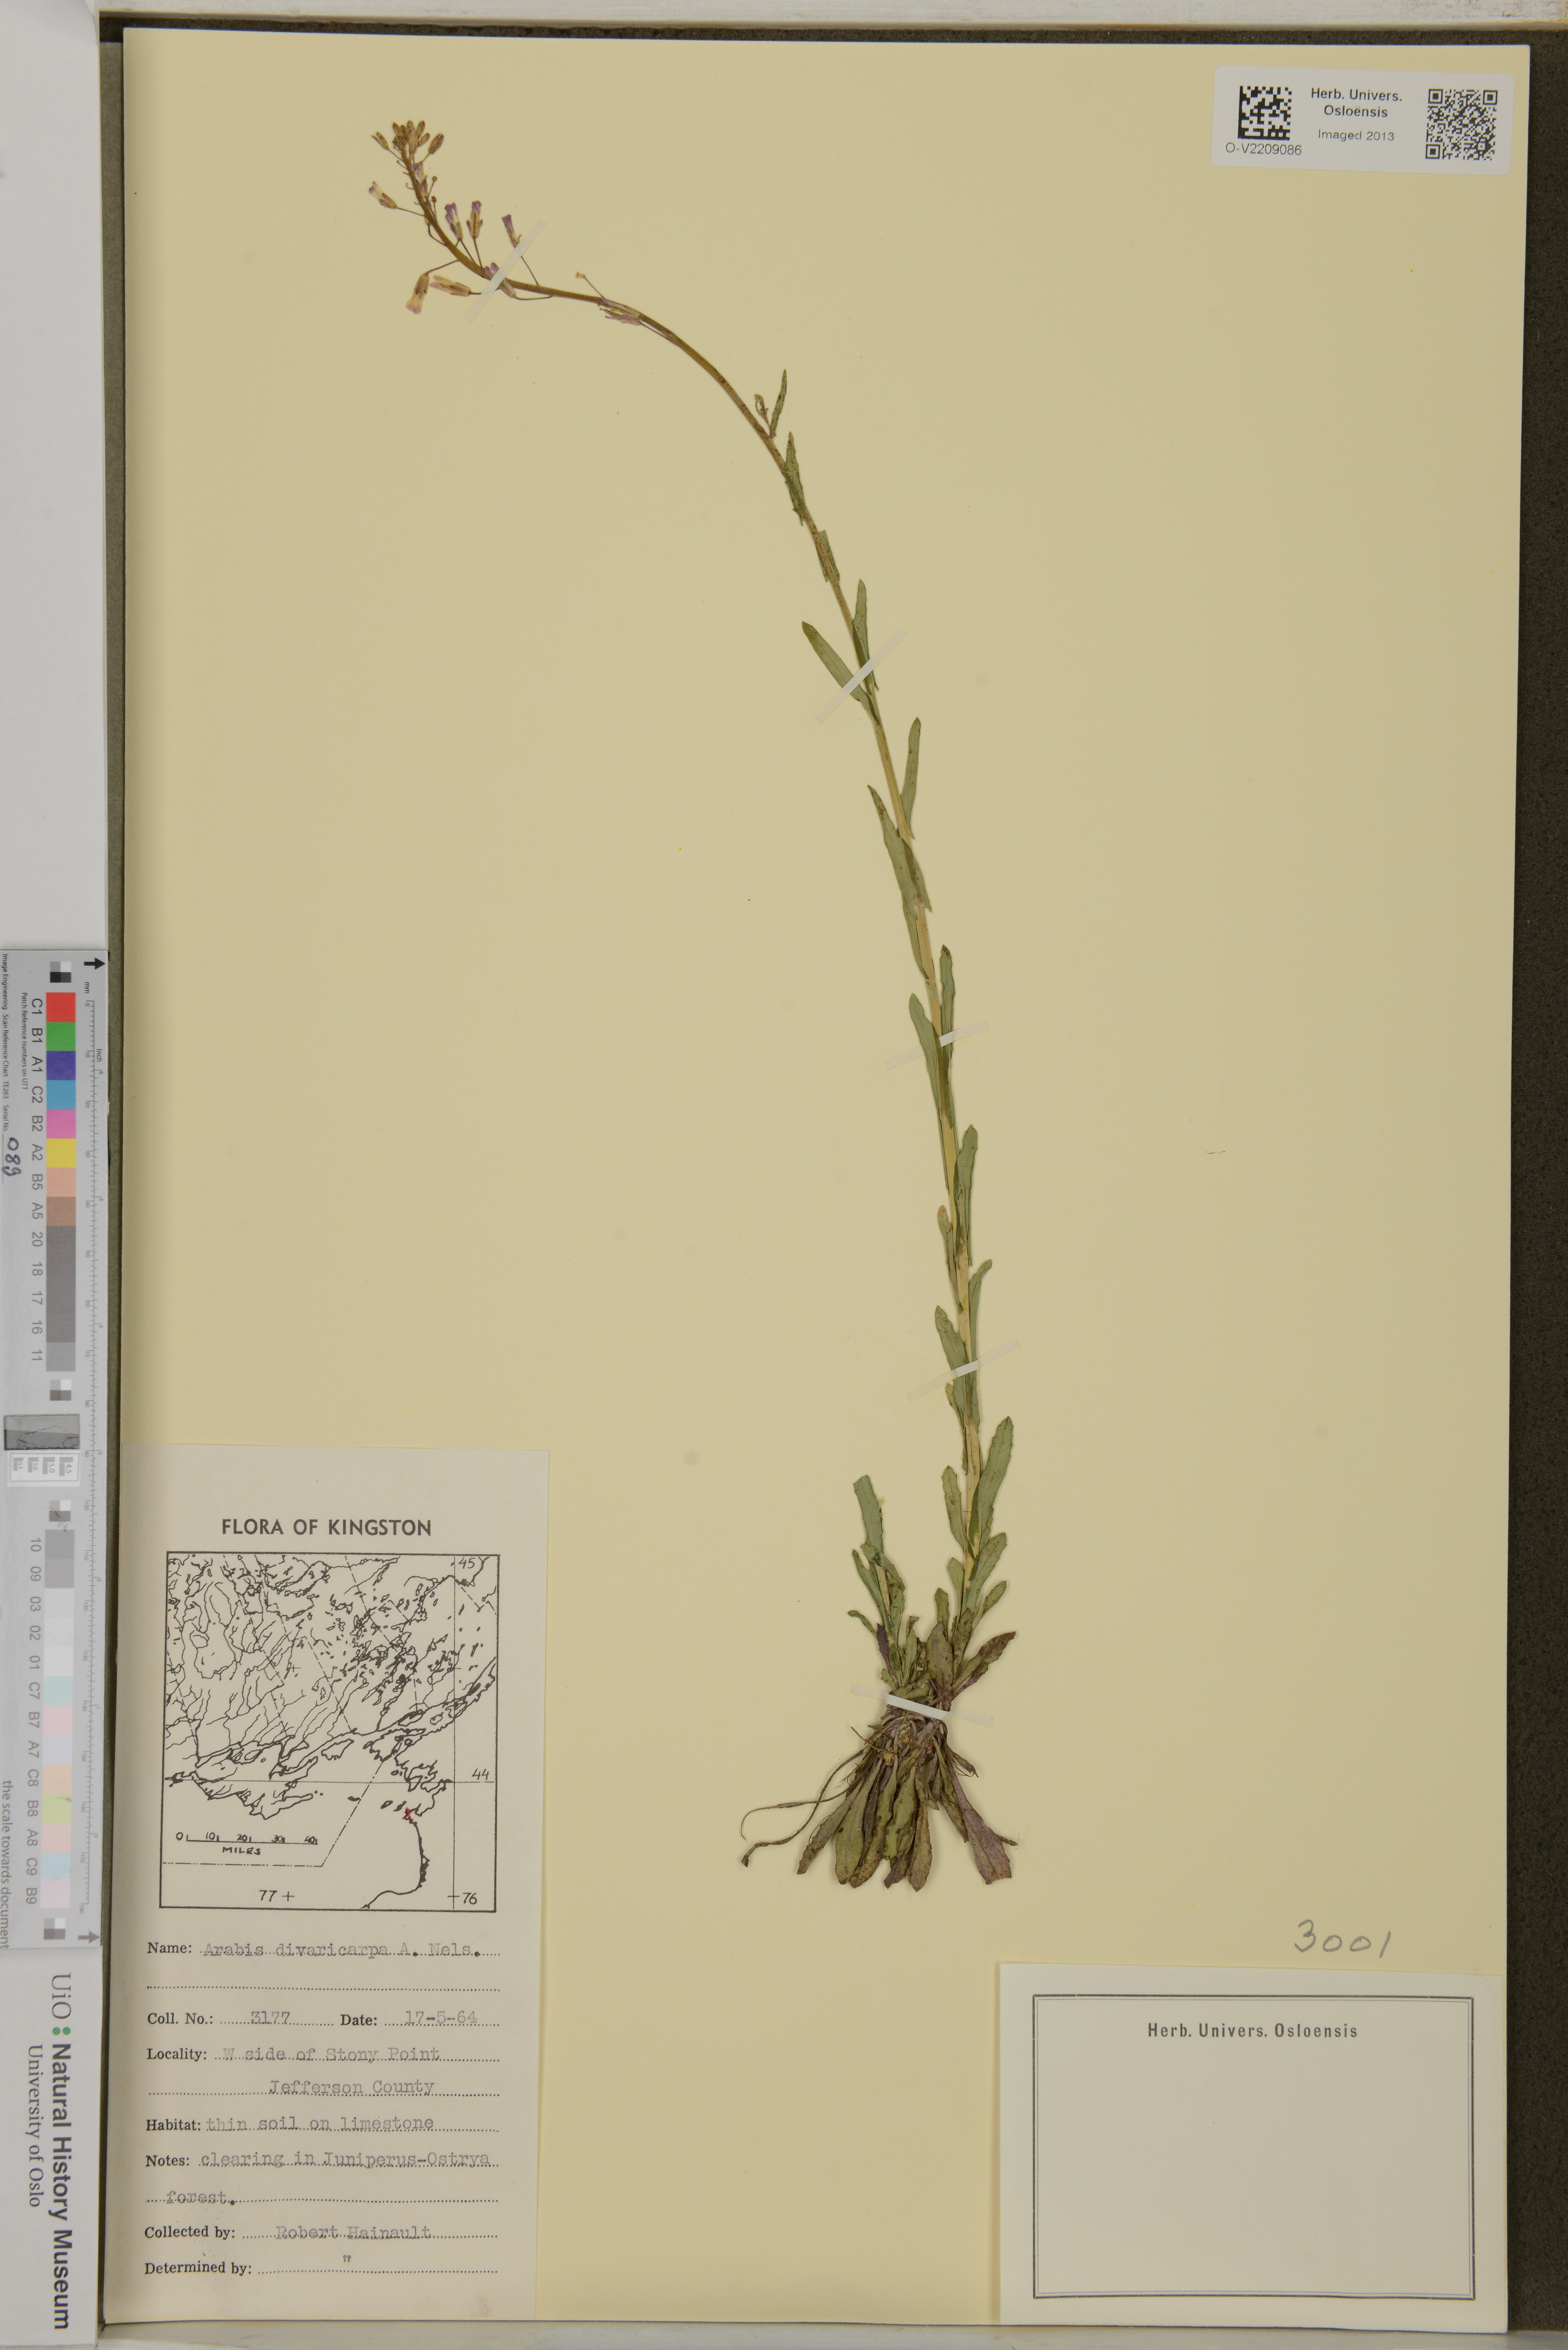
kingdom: Plantae
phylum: Tracheophyta
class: Magnoliopsida
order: Brassicales
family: Brassicaceae
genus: Boechera
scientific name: Boechera divaricarpa
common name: Divaricate rockcress
